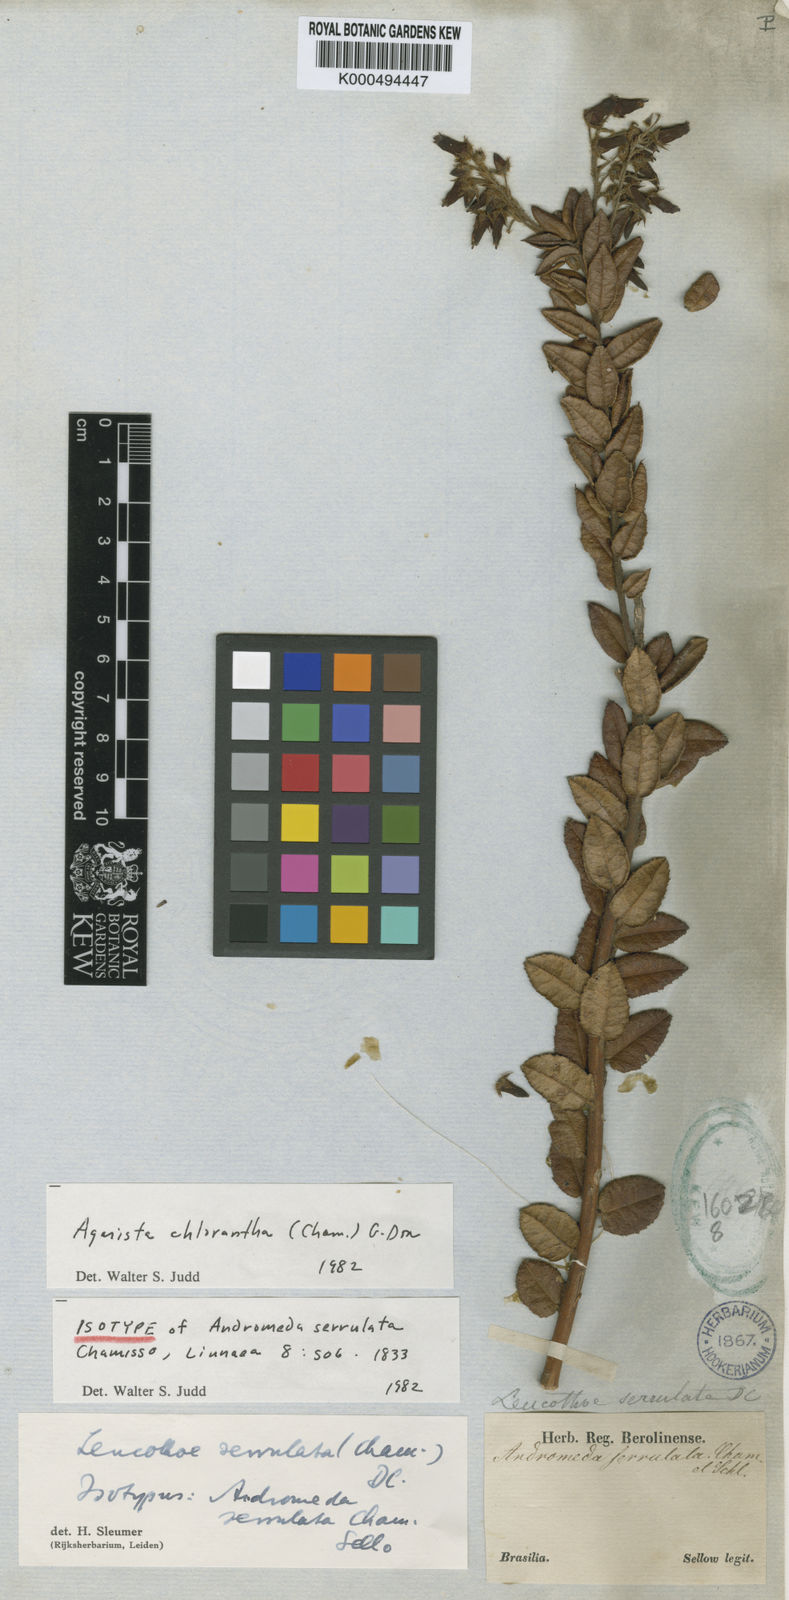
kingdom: Plantae
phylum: Tracheophyta
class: Magnoliopsida
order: Ericales
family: Ericaceae
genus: Agarista
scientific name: Agarista chlorantha
